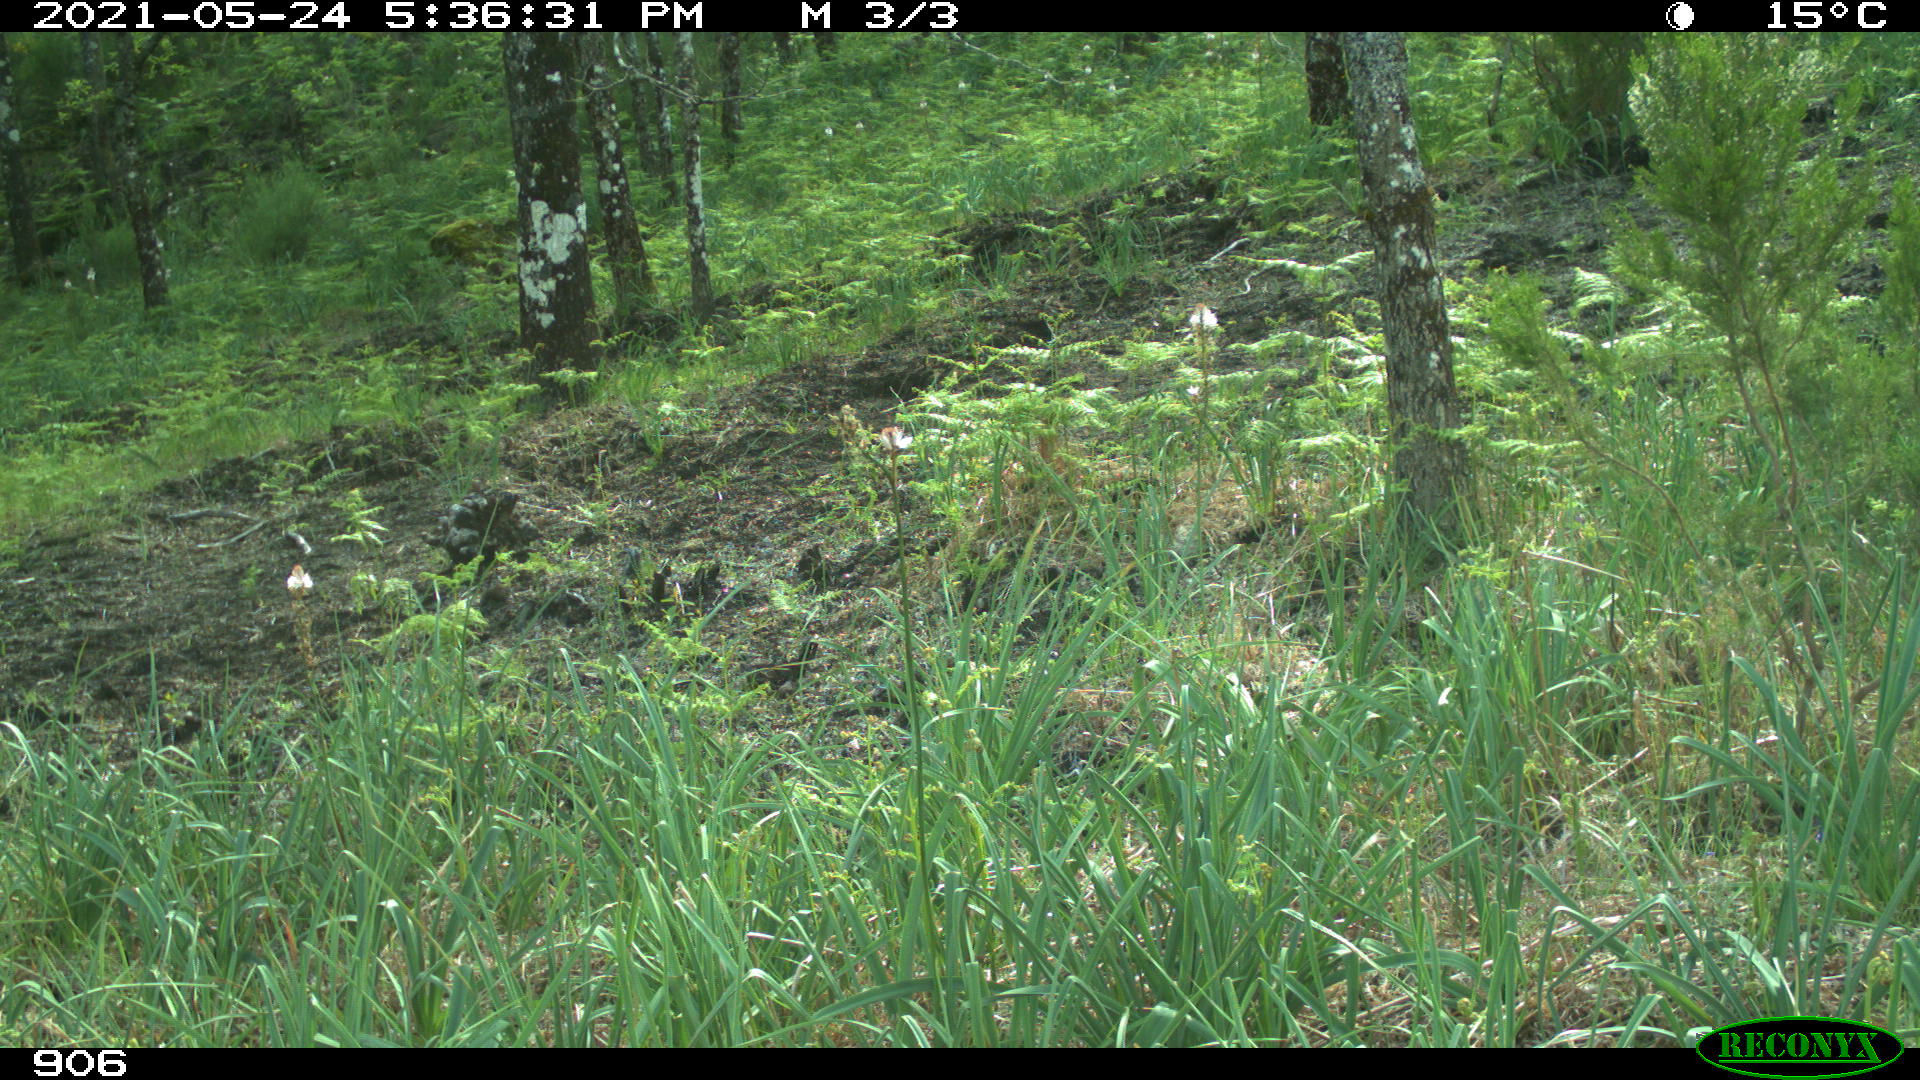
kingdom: Animalia
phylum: Chordata
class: Mammalia
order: Artiodactyla
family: Suidae
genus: Sus
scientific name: Sus scrofa
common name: Wild boar
